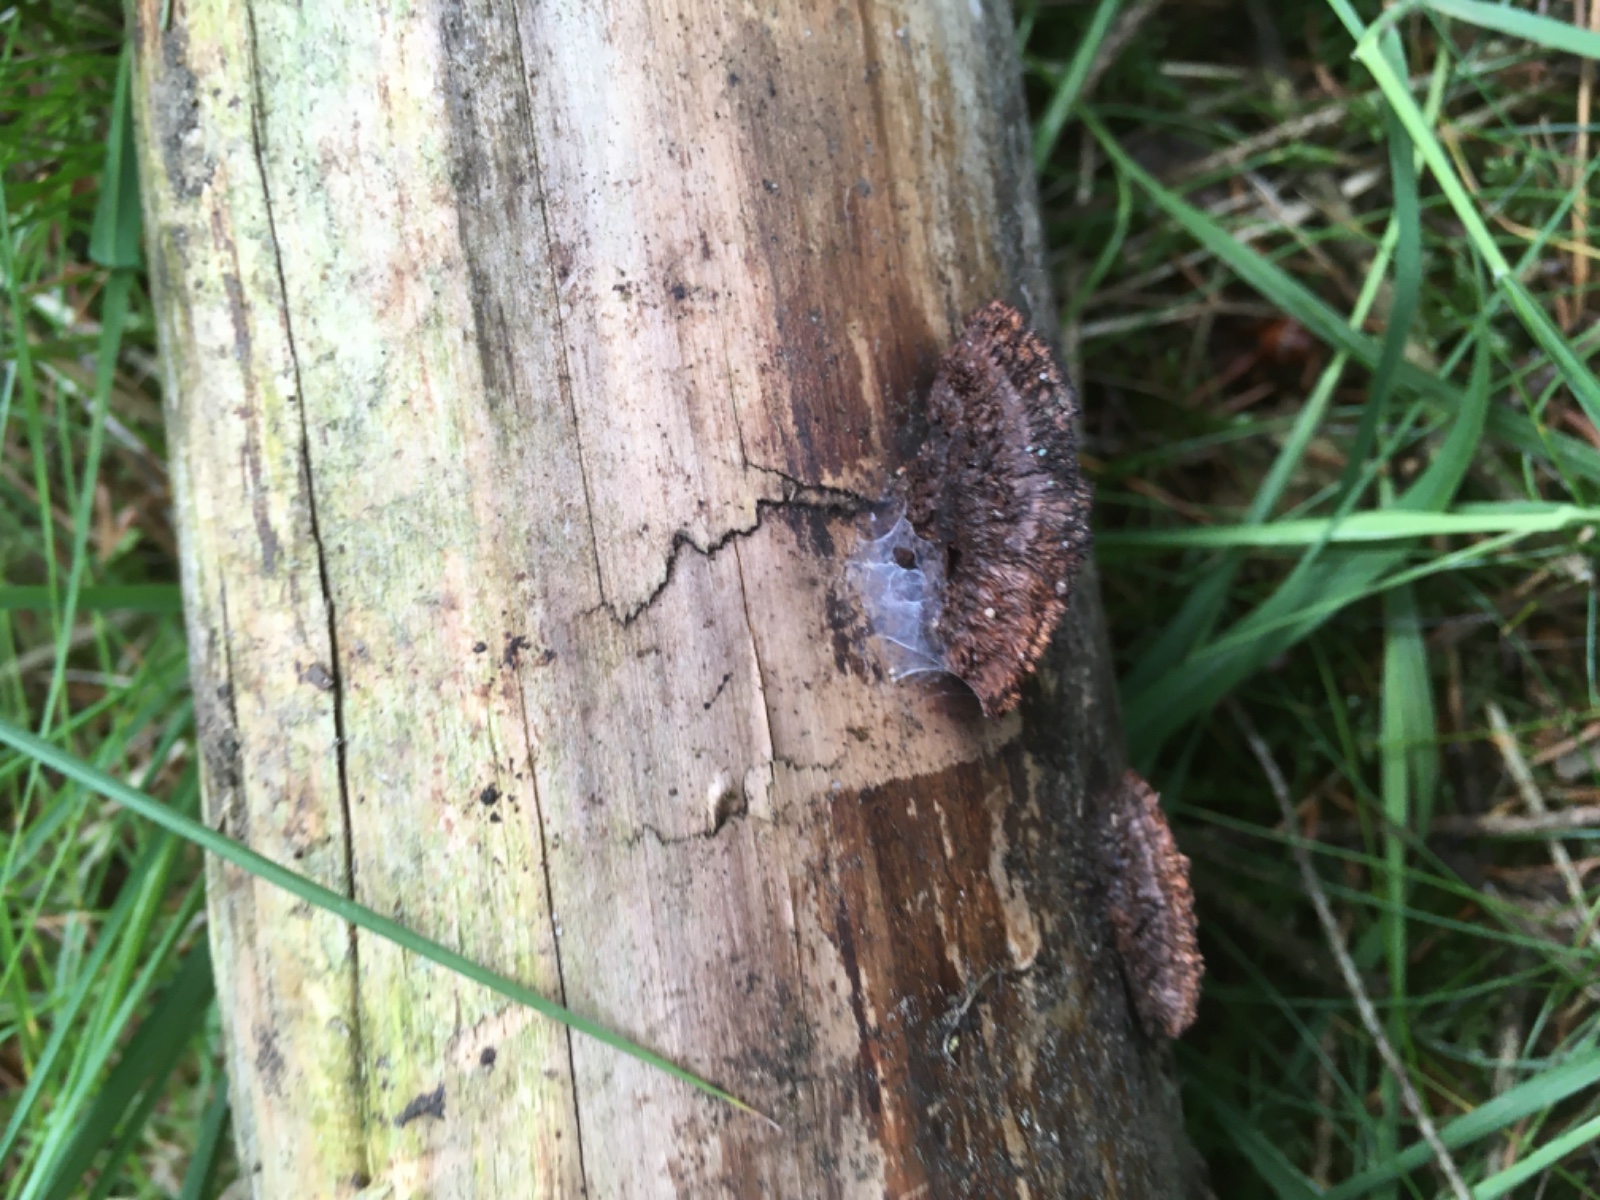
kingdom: Fungi
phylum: Basidiomycota
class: Agaricomycetes
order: Gloeophyllales
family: Gloeophyllaceae
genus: Gloeophyllum
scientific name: Gloeophyllum sepiarium
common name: fyrre-korkhat
